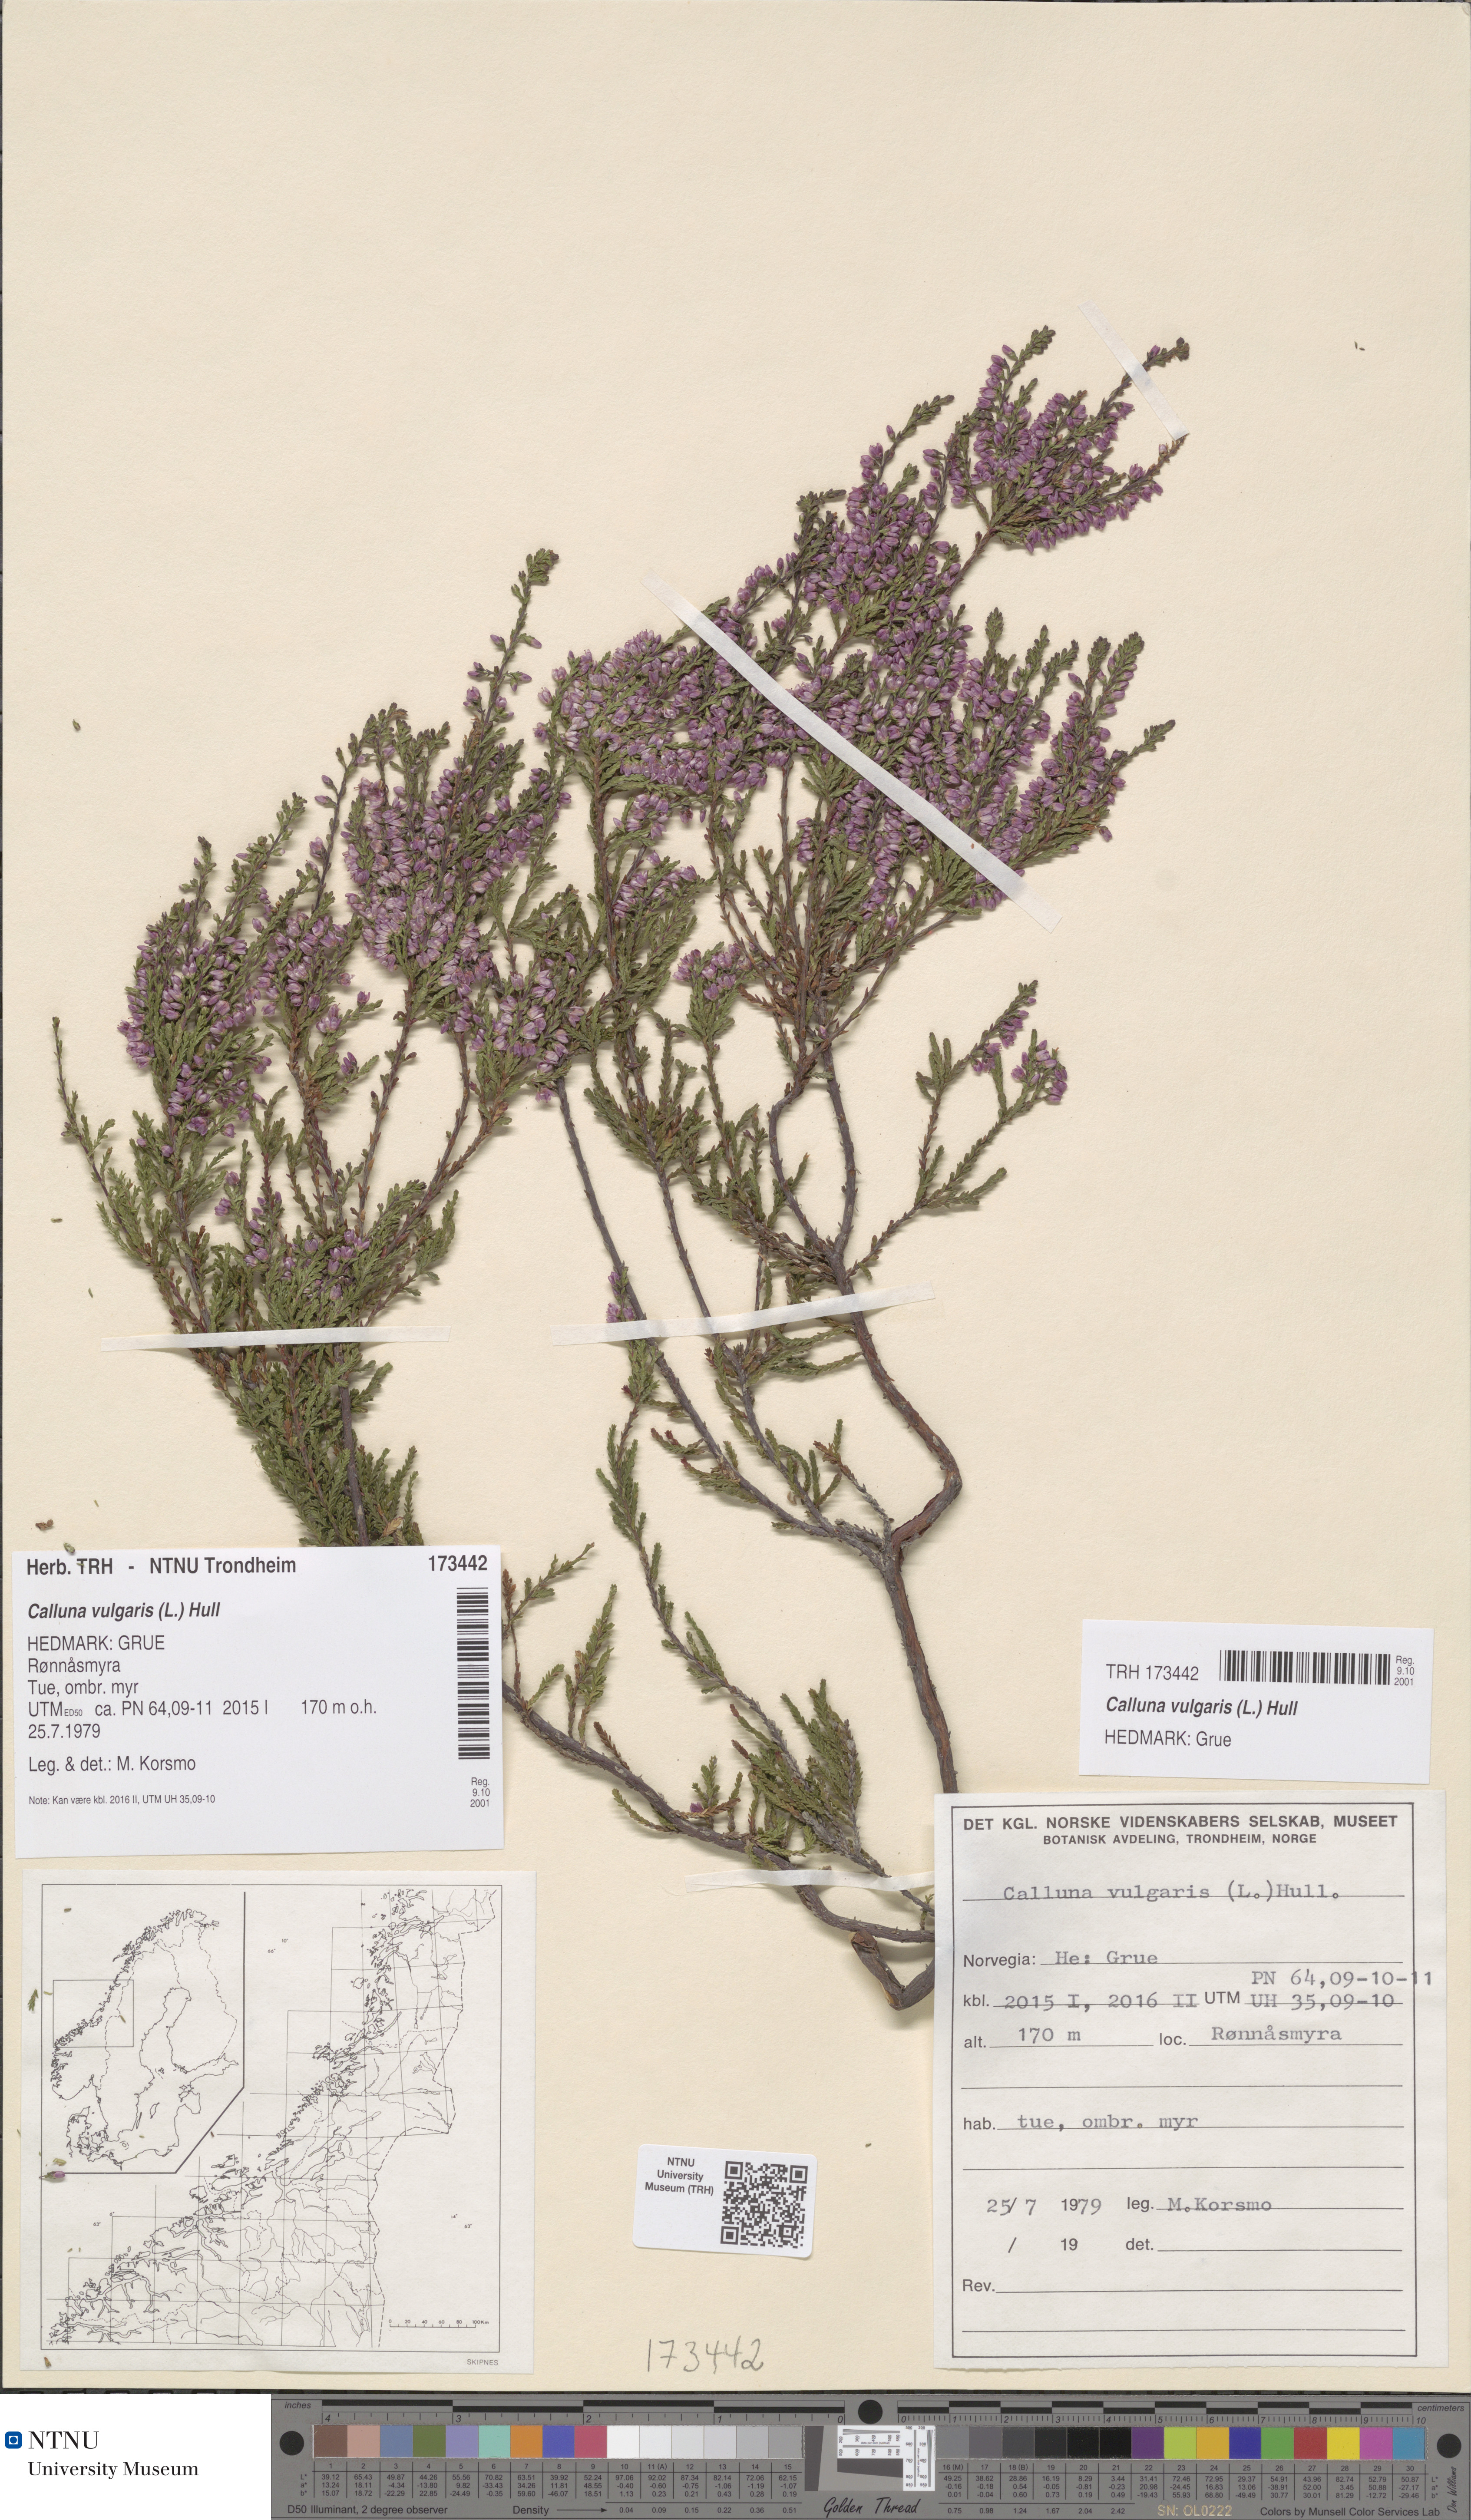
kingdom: Plantae
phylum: Tracheophyta
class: Magnoliopsida
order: Ericales
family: Ericaceae
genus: Calluna
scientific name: Calluna vulgaris
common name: Heather
